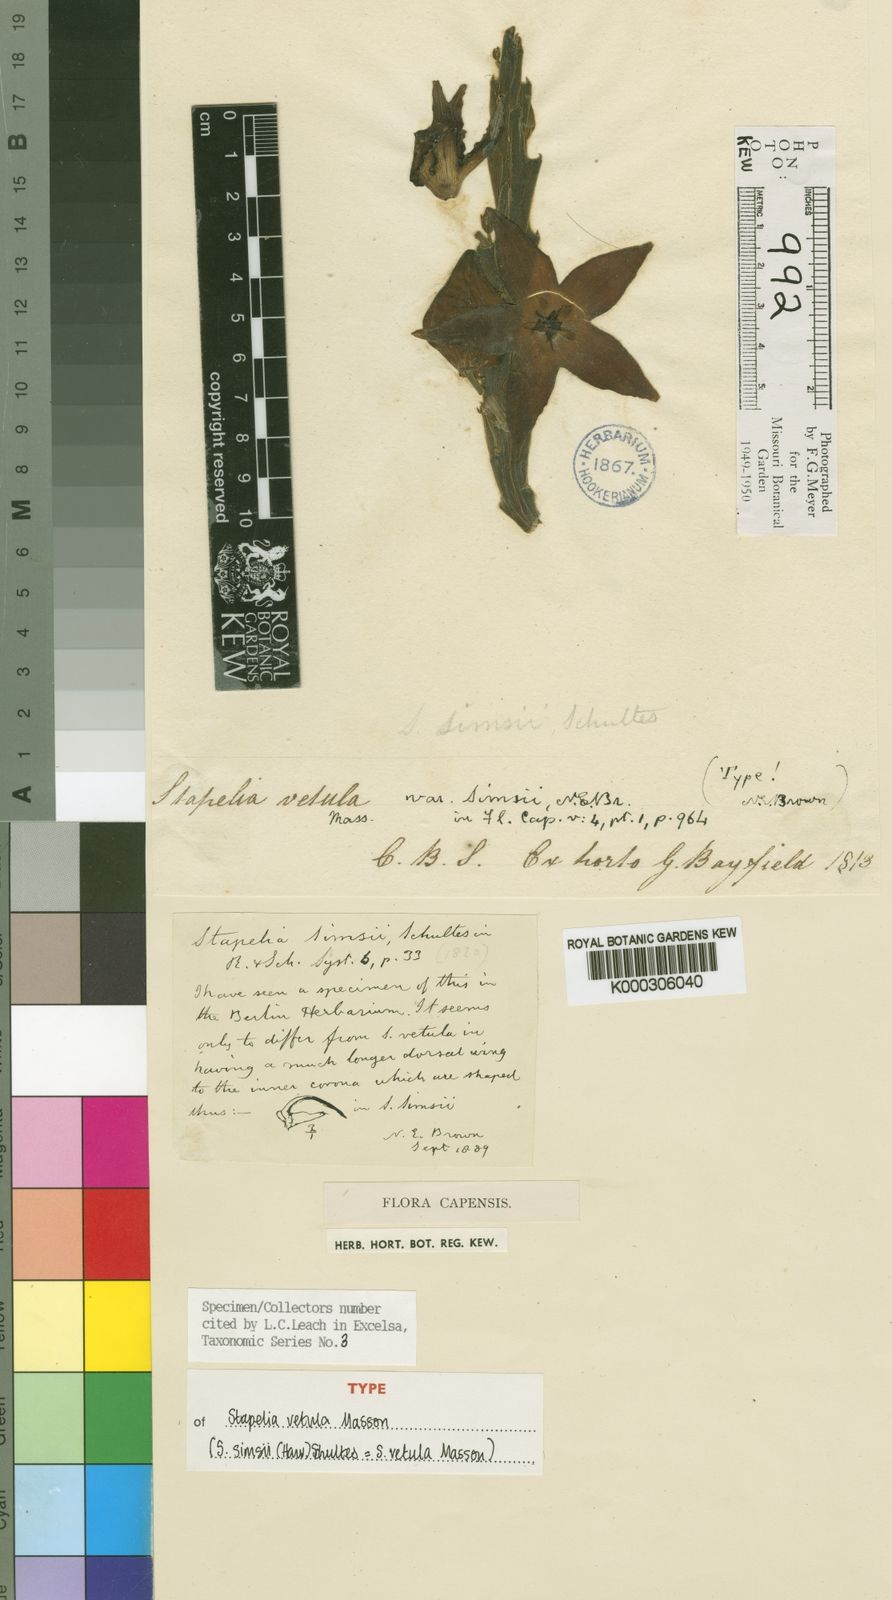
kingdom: Plantae
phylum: Tracheophyta
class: Magnoliopsida
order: Gentianales
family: Apocynaceae
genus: Ceropegia
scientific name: Ceropegia pulvinata
